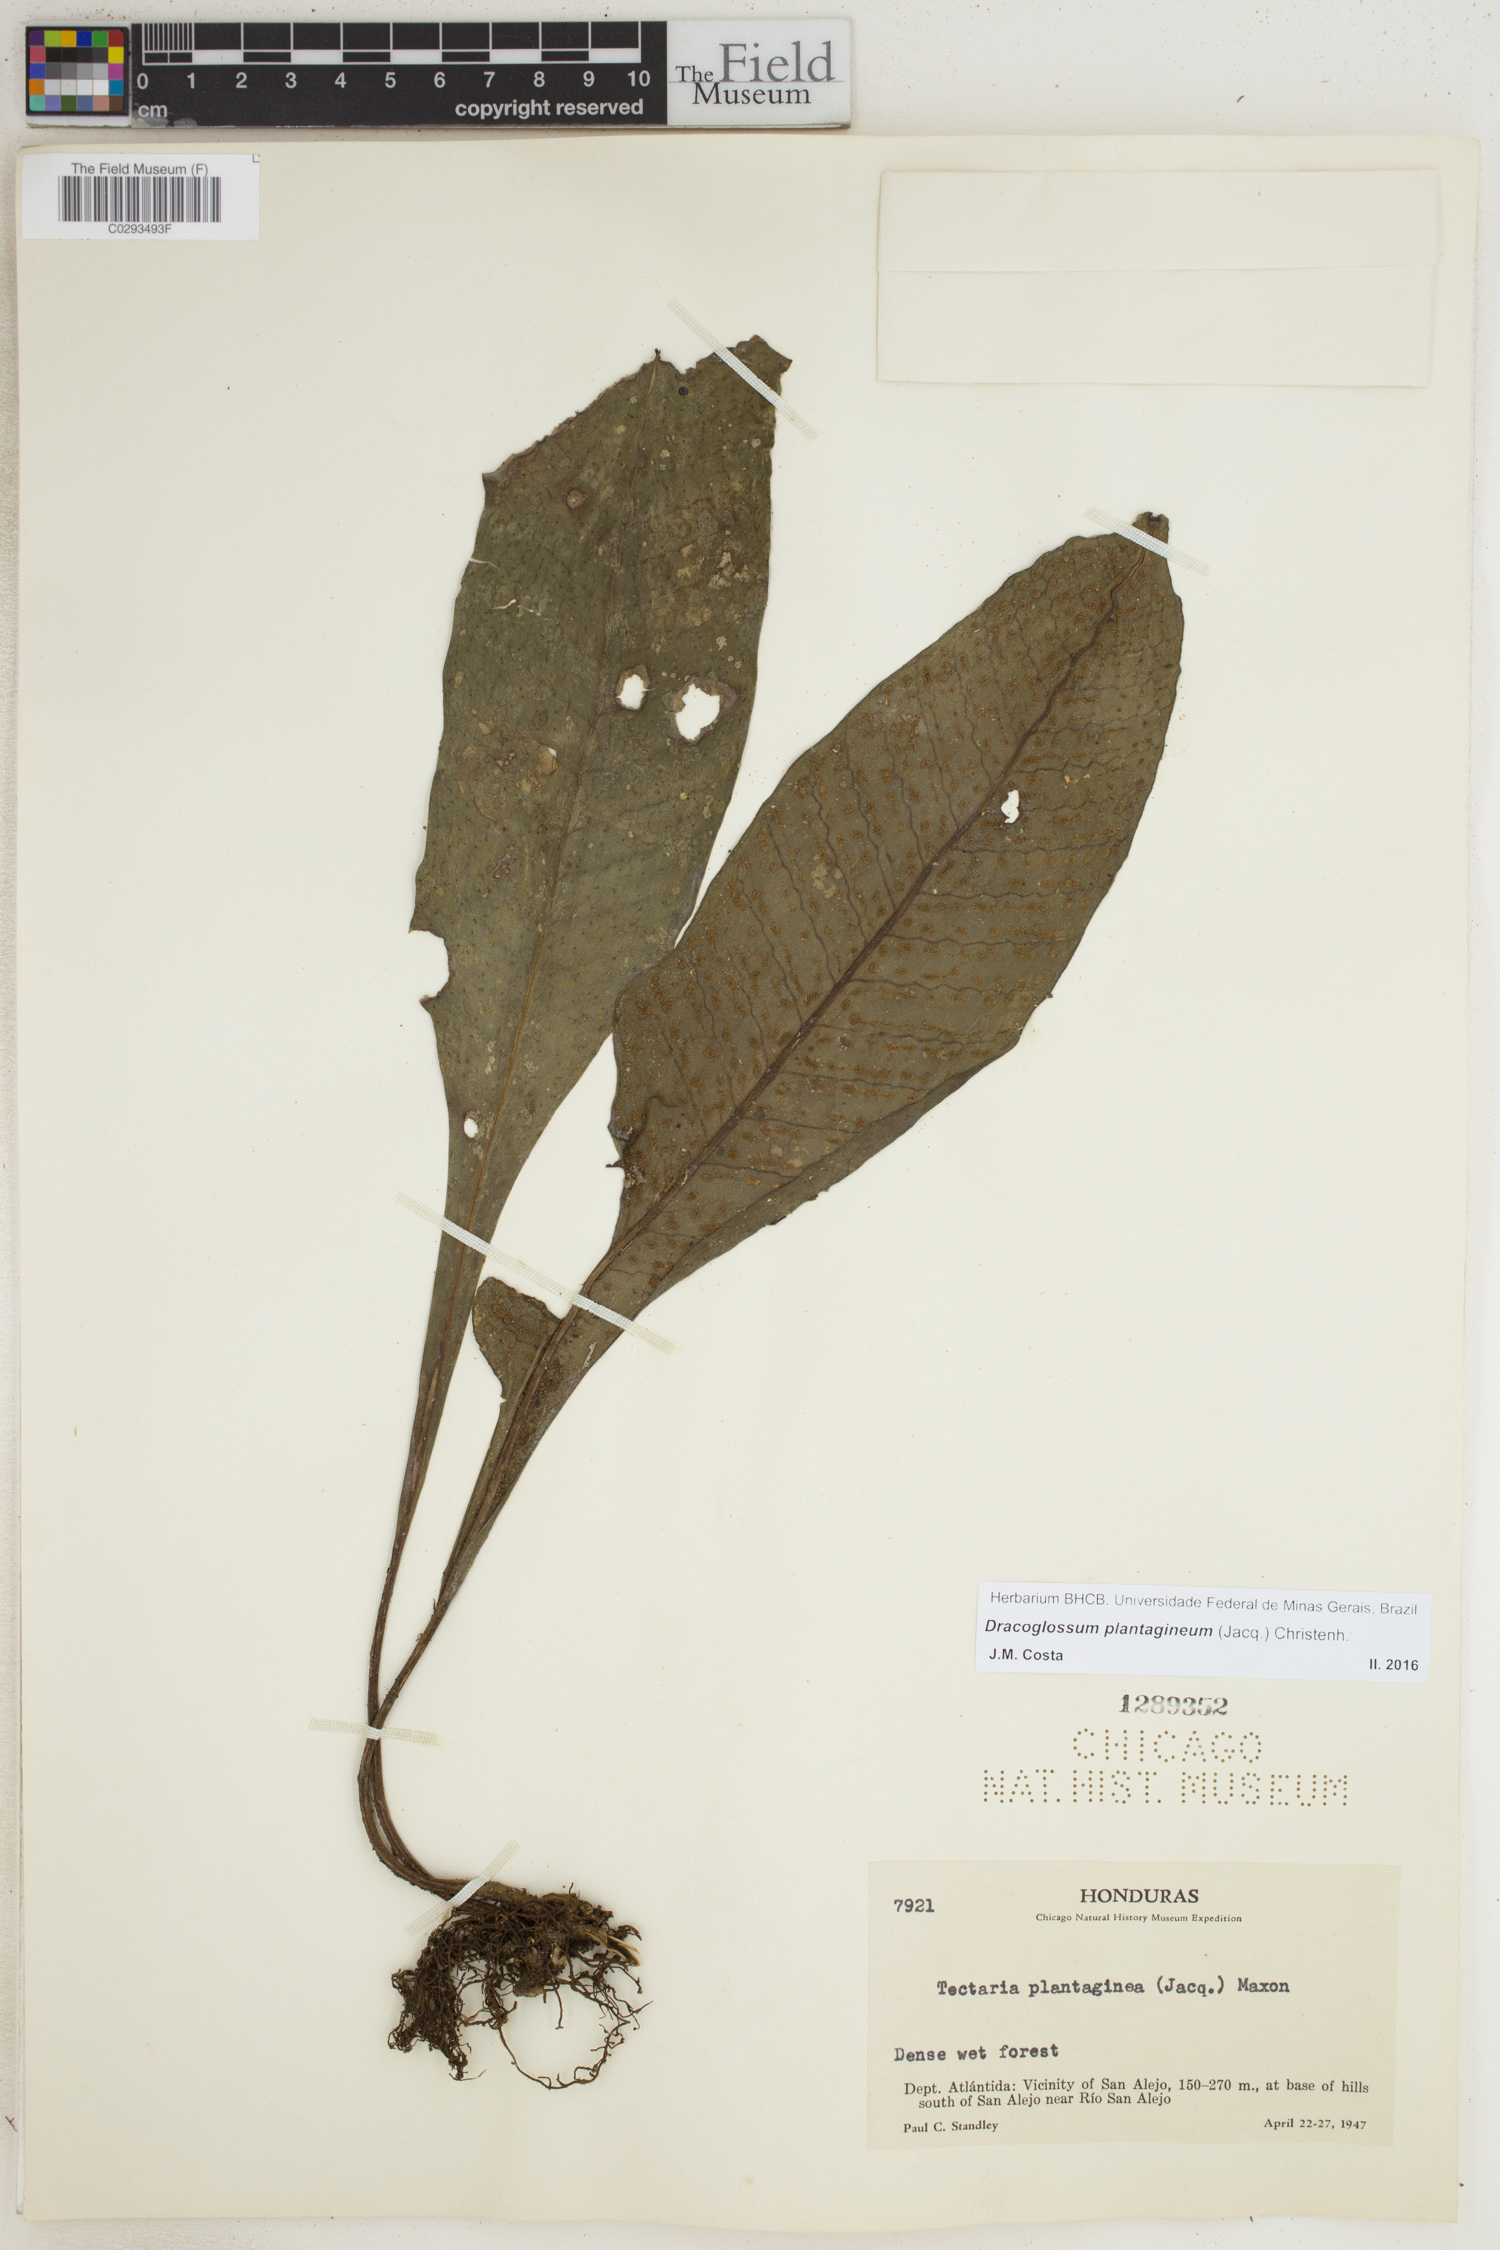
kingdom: Plantae
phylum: Tracheophyta
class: Polypodiopsida
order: Polypodiales
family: Lomariopsidaceae
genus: Dracoglossum
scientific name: Dracoglossum plantagineum
